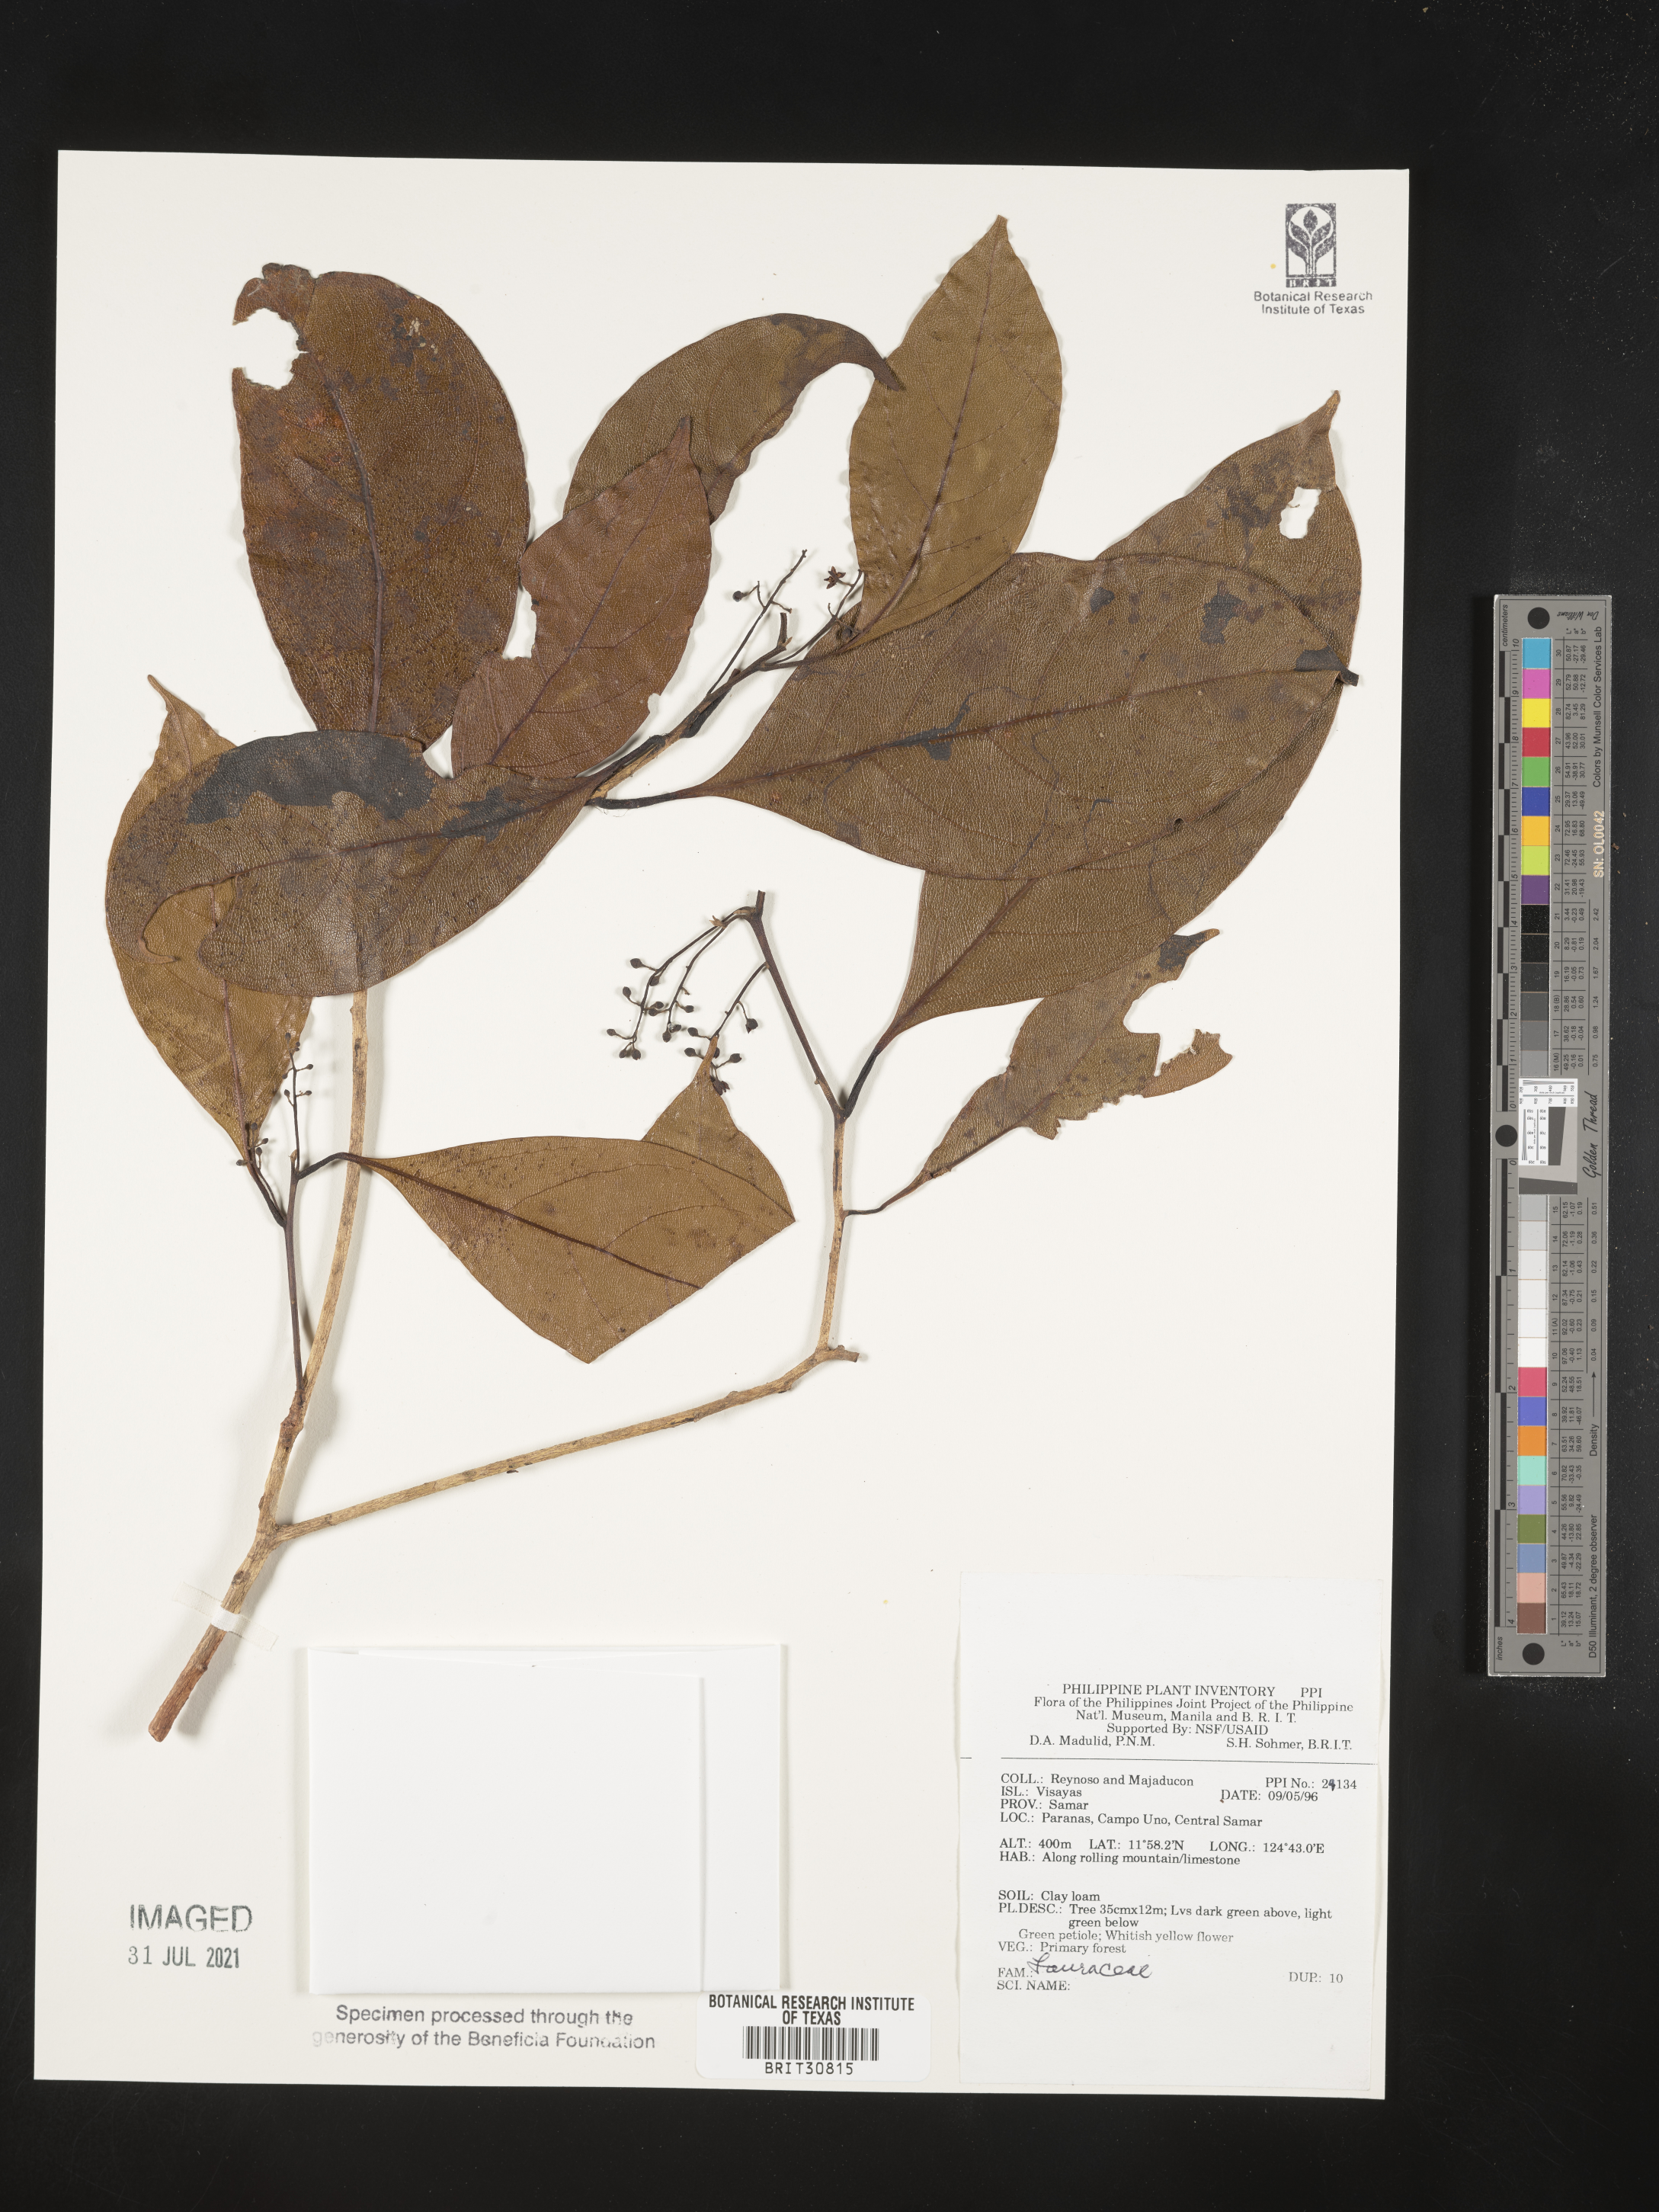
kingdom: Plantae
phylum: Tracheophyta
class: Magnoliopsida
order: Laurales
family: Lauraceae
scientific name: Lauraceae
